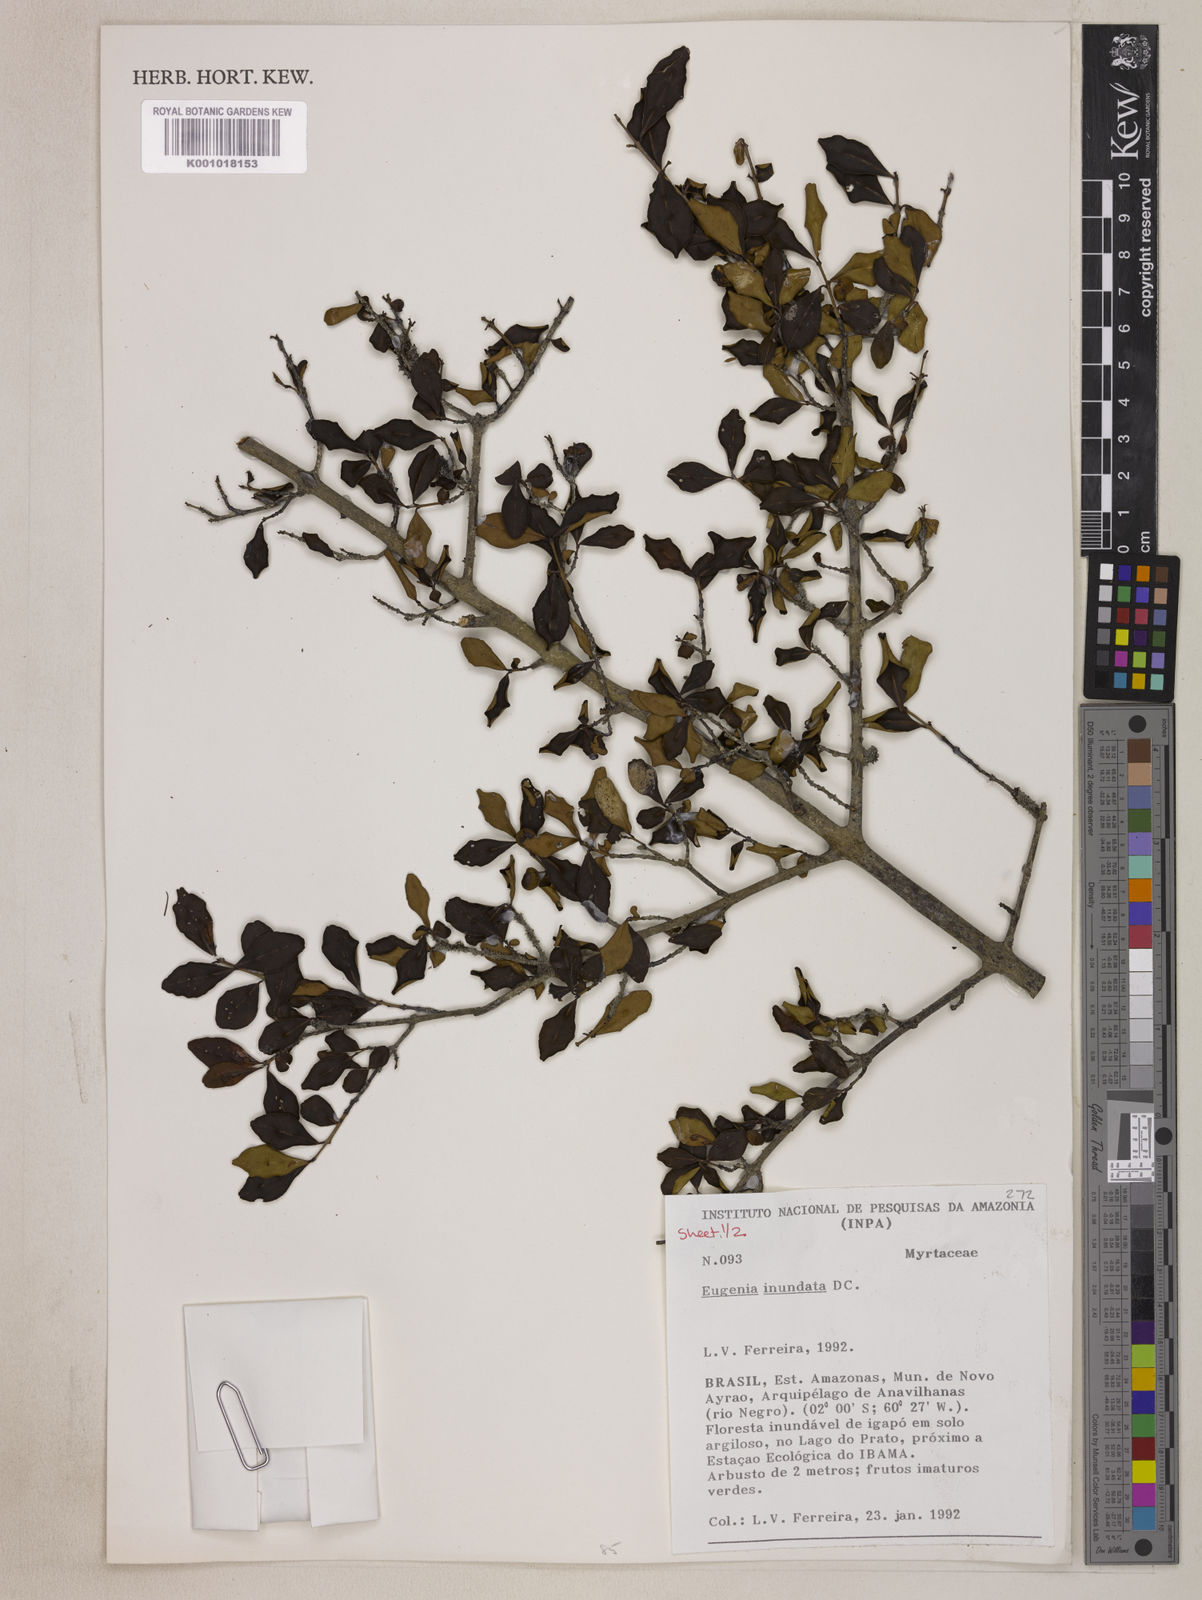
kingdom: Plantae
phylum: Tracheophyta
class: Magnoliopsida
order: Myrtales
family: Myrtaceae
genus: Eugenia
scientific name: Eugenia inundata
